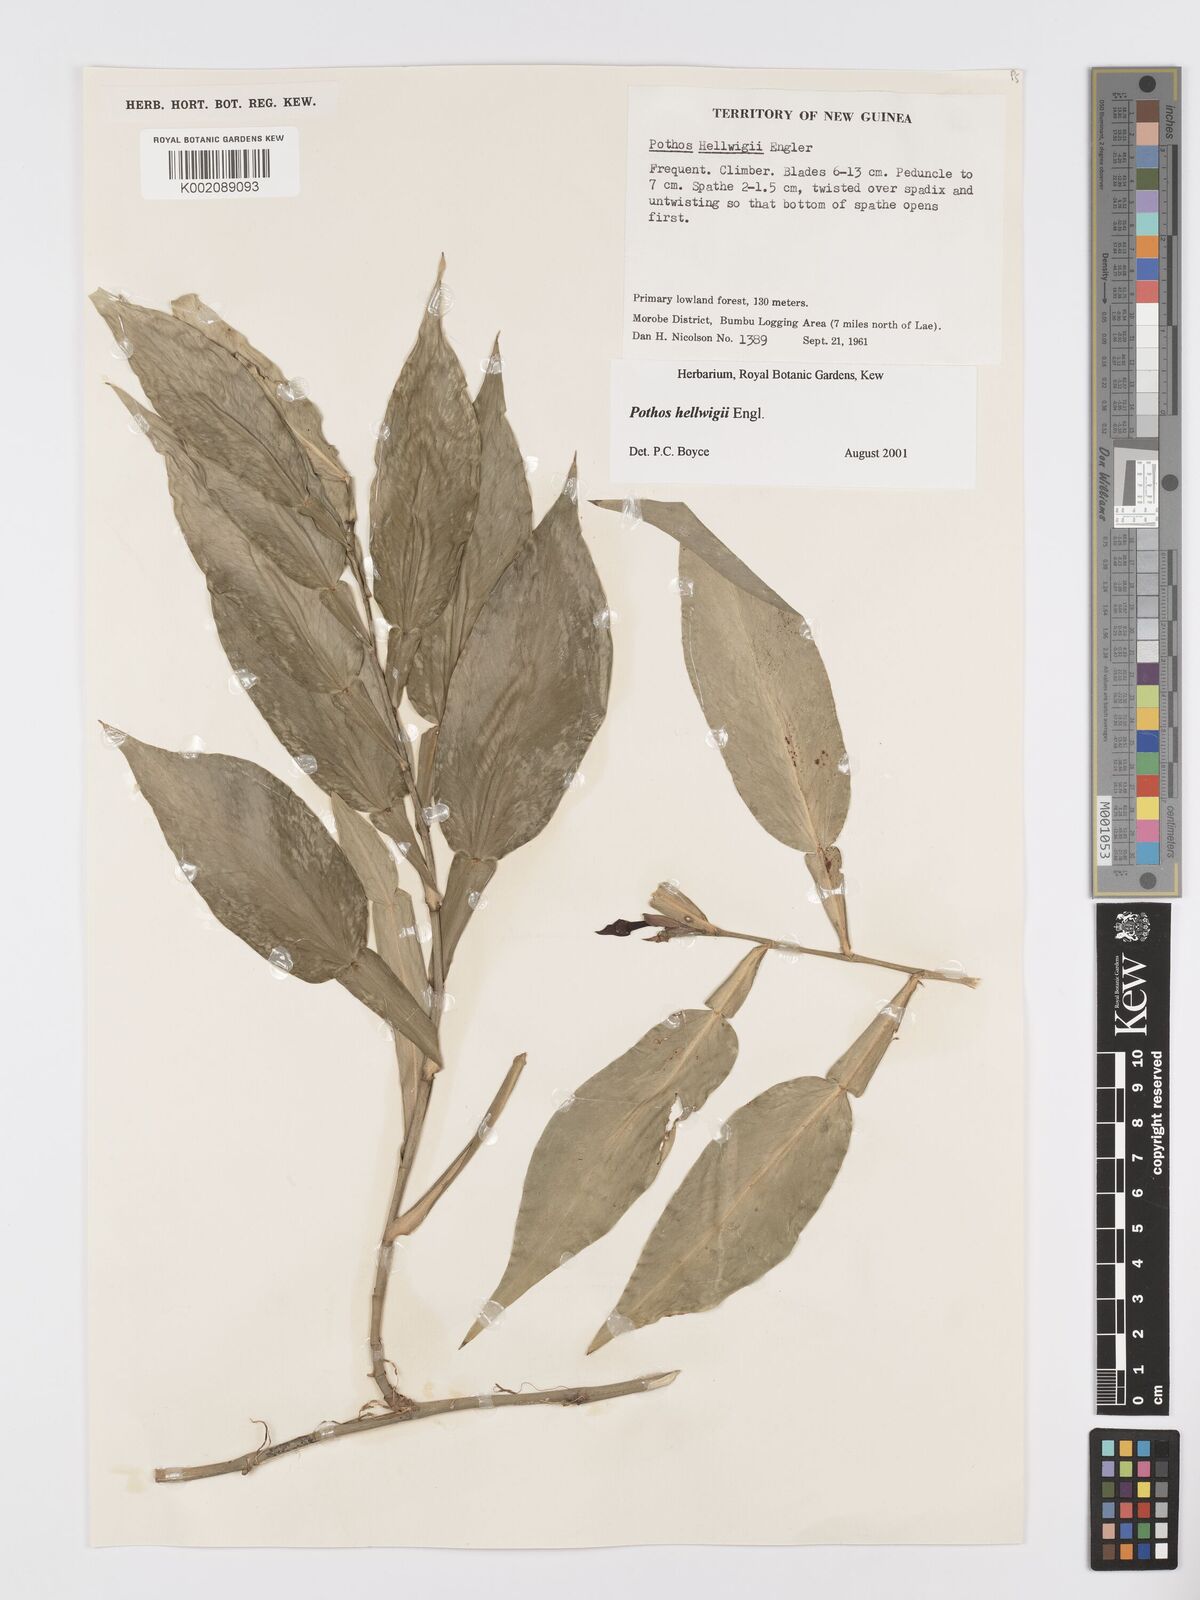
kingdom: Plantae
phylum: Tracheophyta
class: Liliopsida
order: Alismatales
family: Araceae
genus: Pothos
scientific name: Pothos hellwigii
